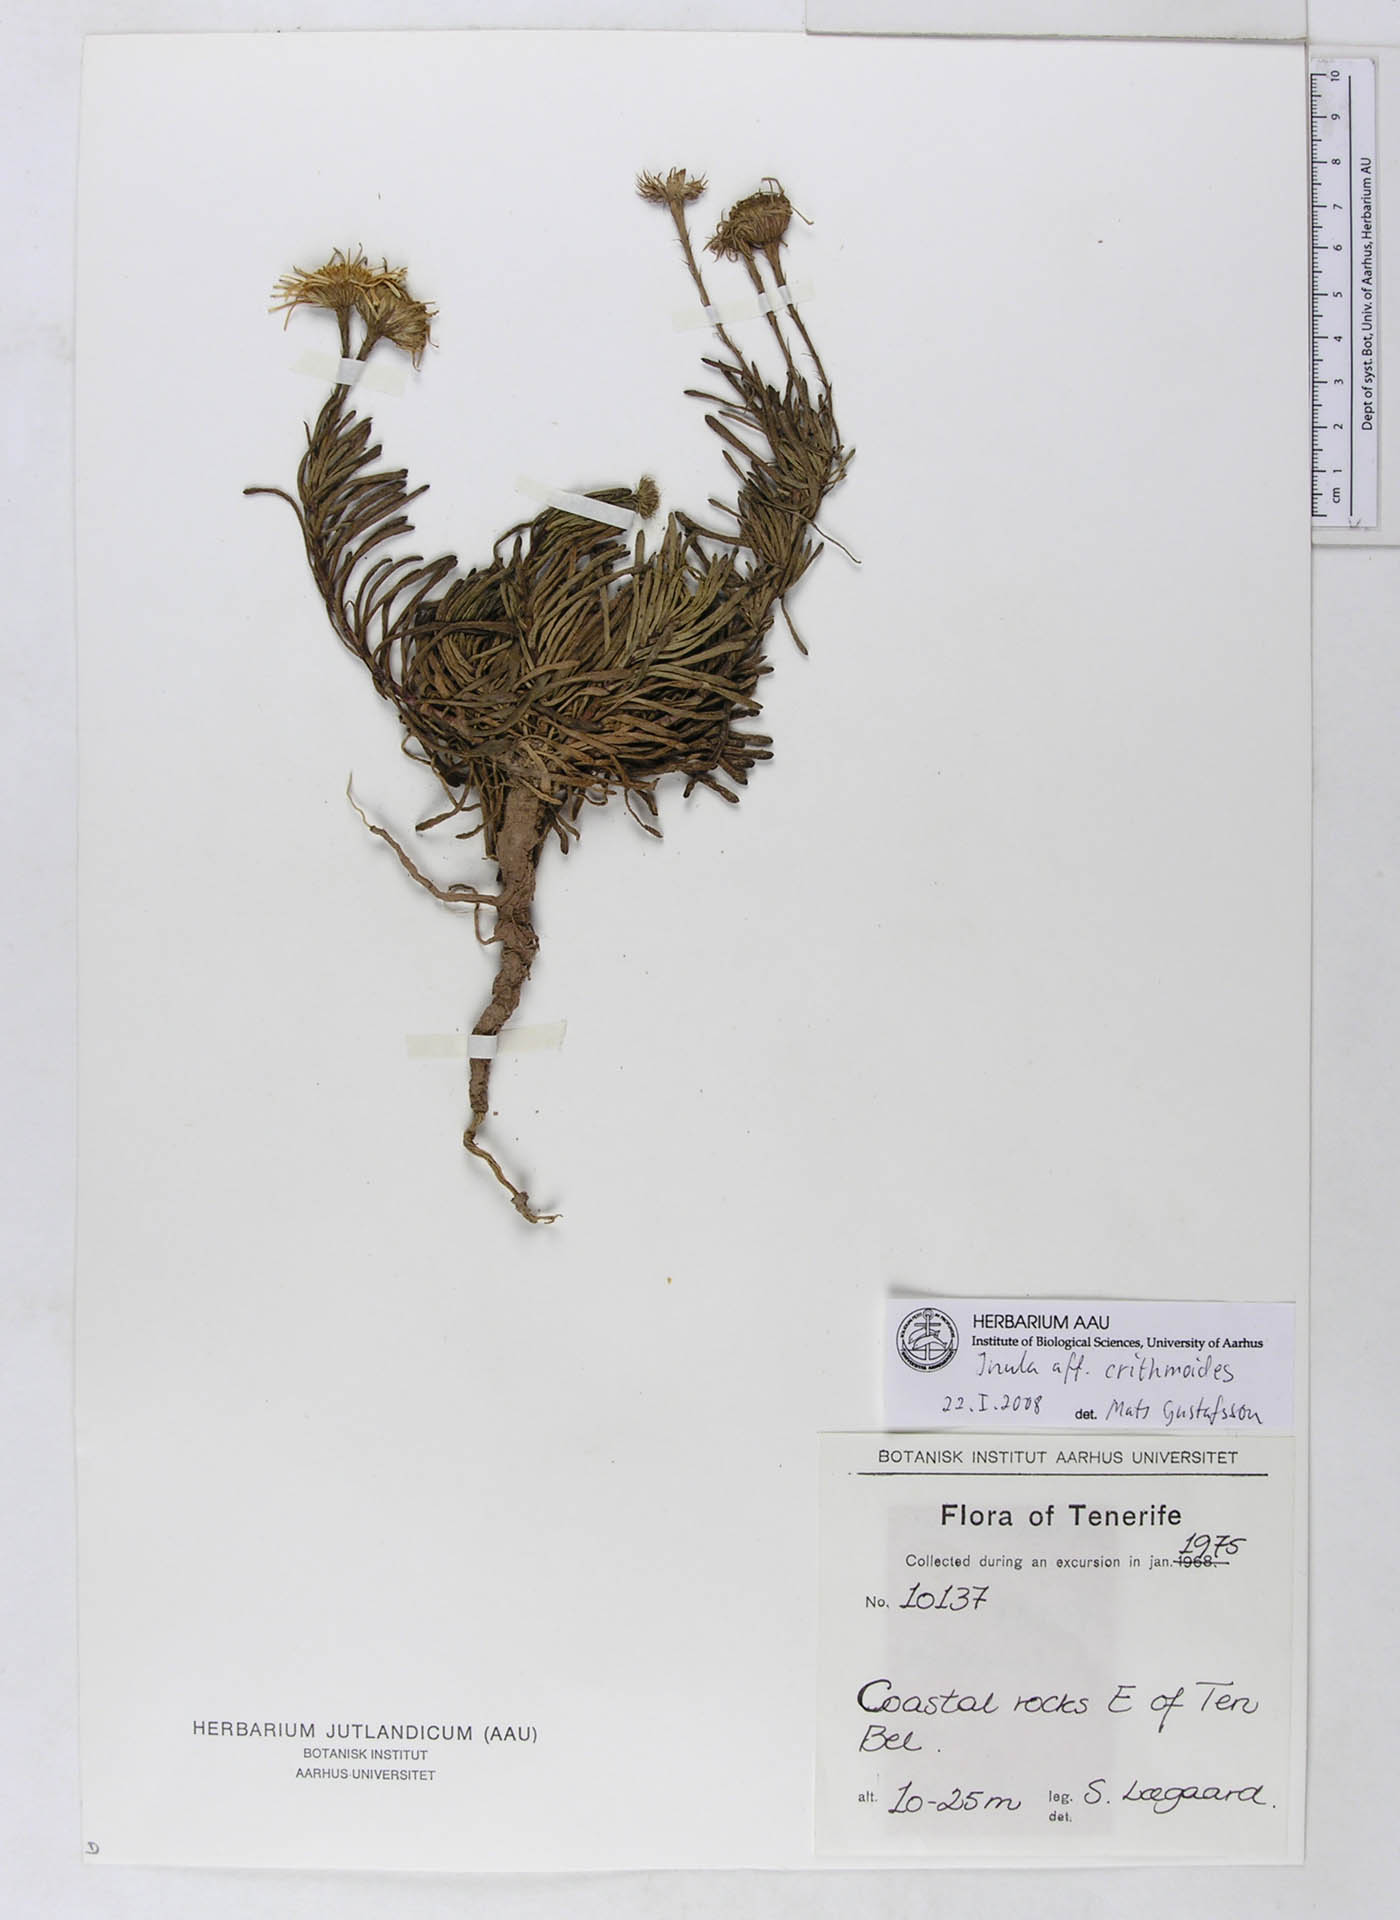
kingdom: Plantae
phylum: Tracheophyta
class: Magnoliopsida
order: Asterales
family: Asteraceae
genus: Limbarda
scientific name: Limbarda crithmoides
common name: Golden samphire
